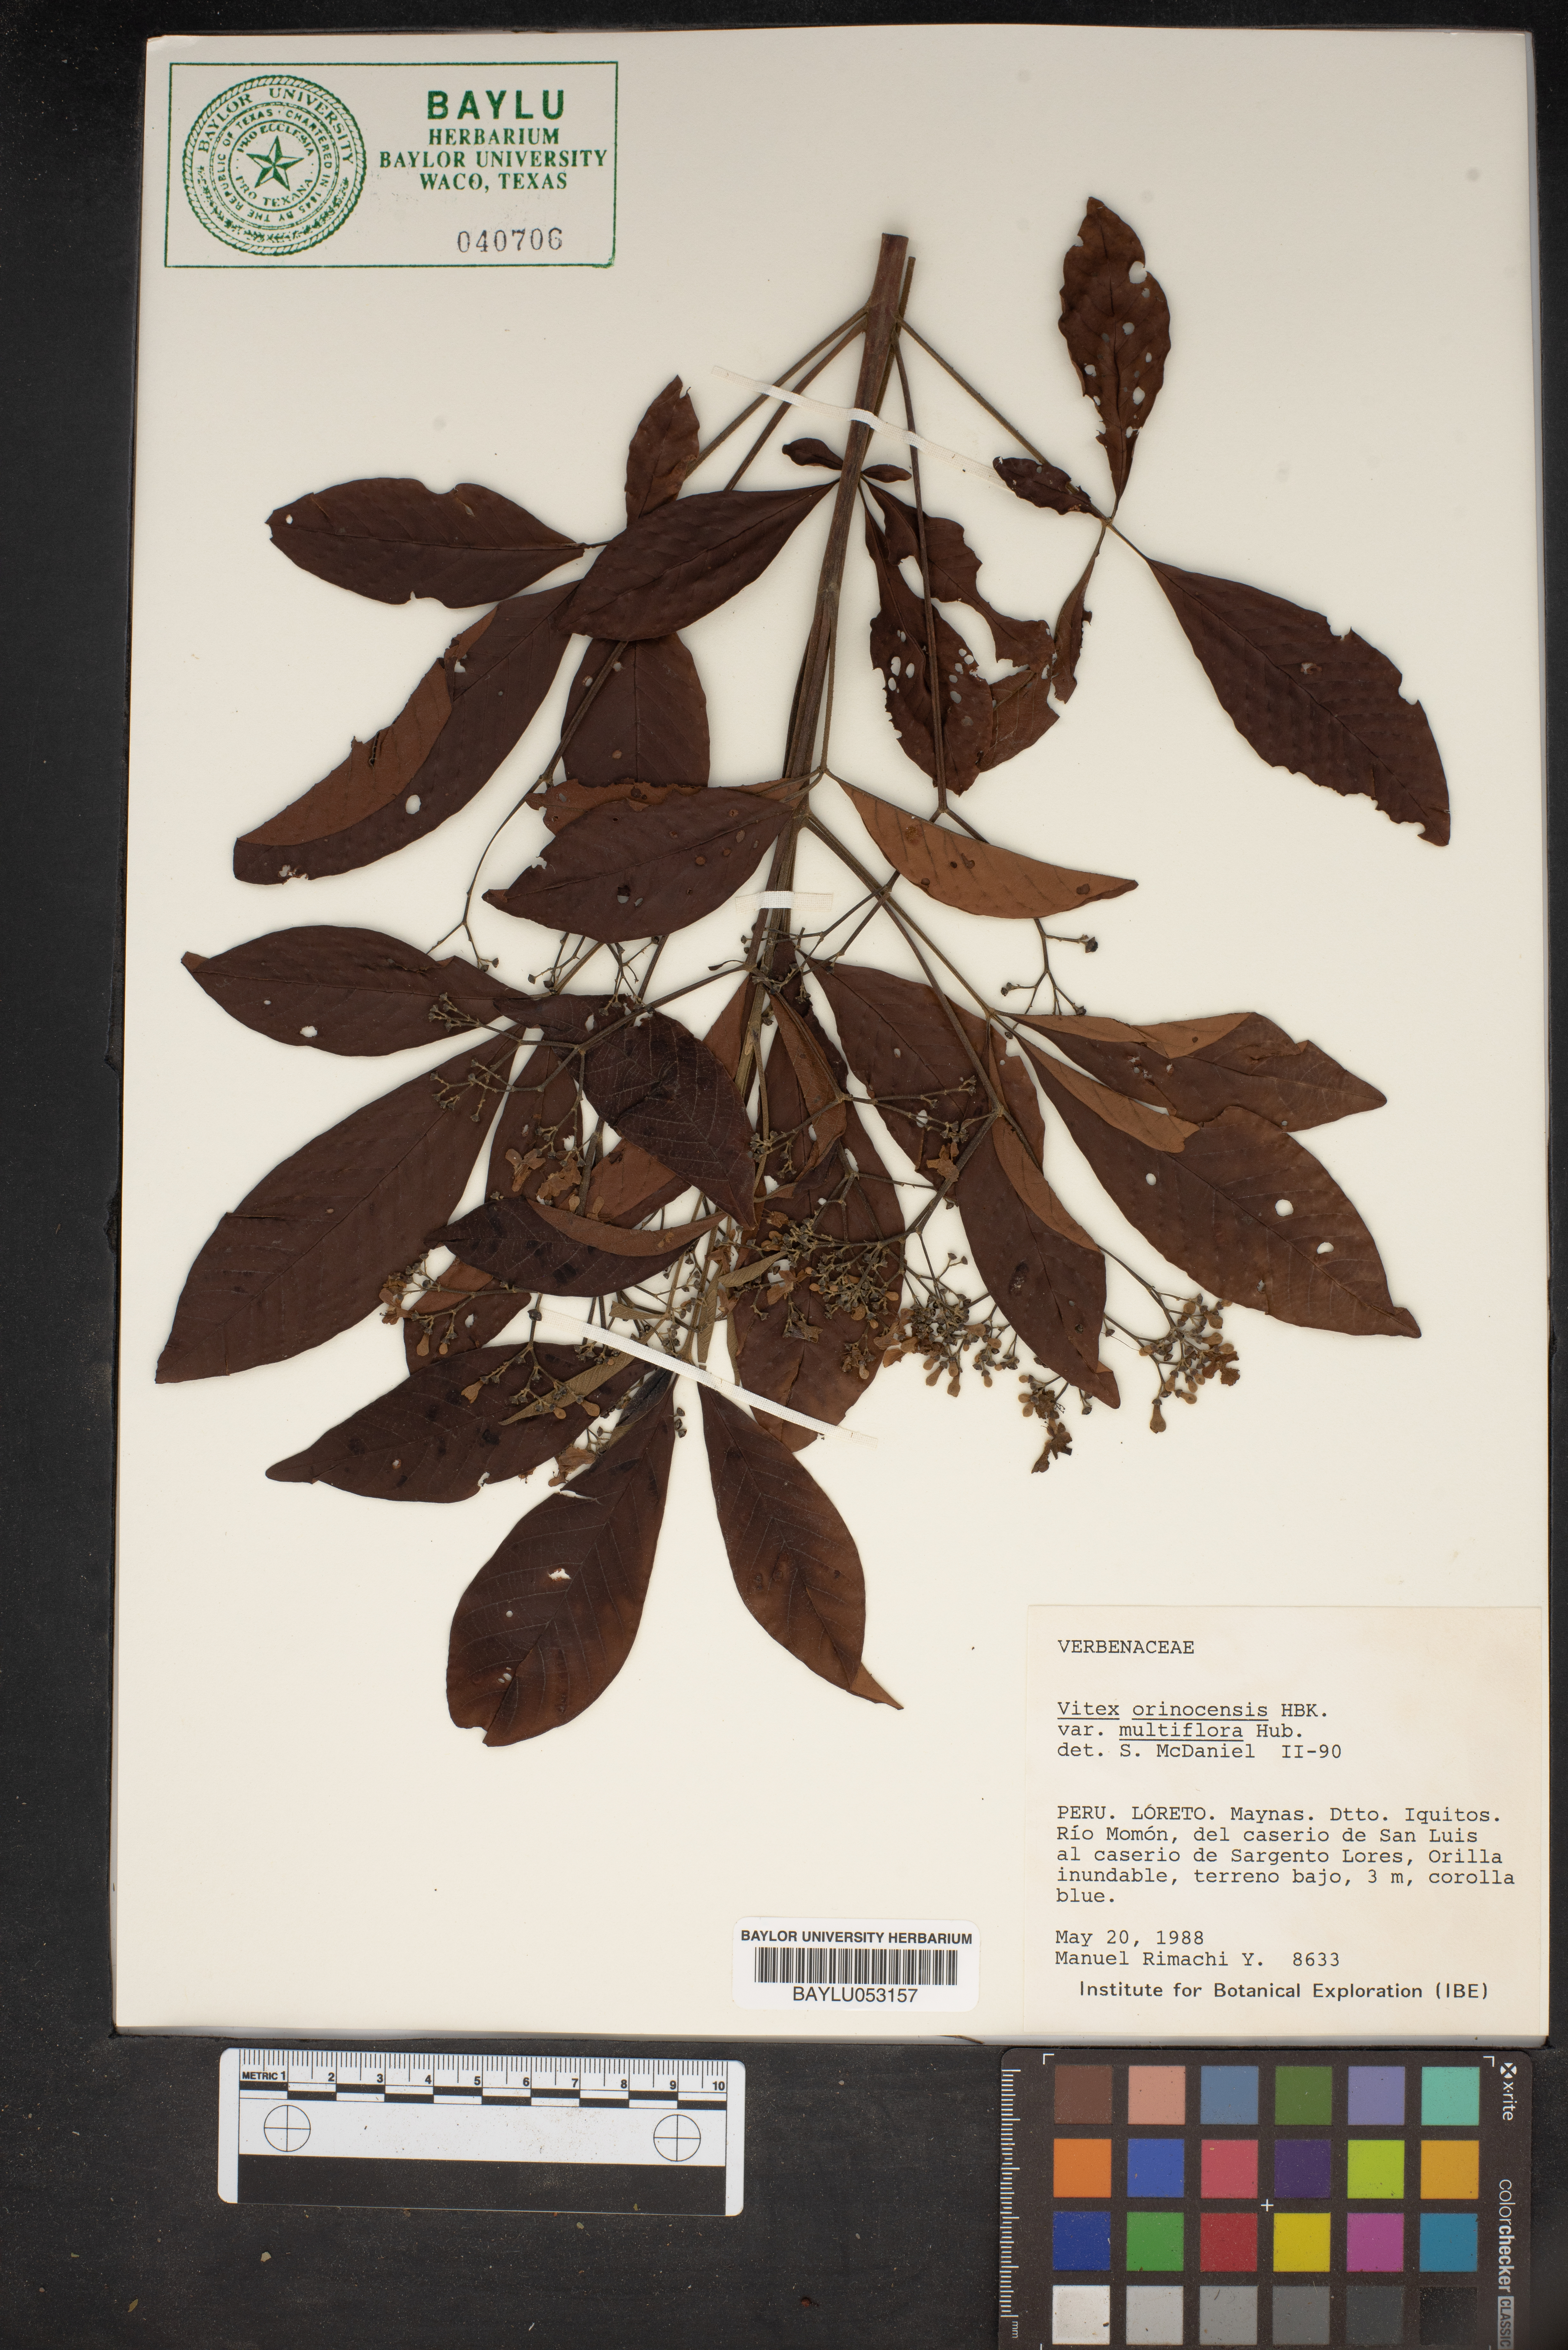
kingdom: Plantae
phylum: Tracheophyta
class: Magnoliopsida
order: Lamiales
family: Lamiaceae
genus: Vitex
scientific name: Vitex orinocensis
